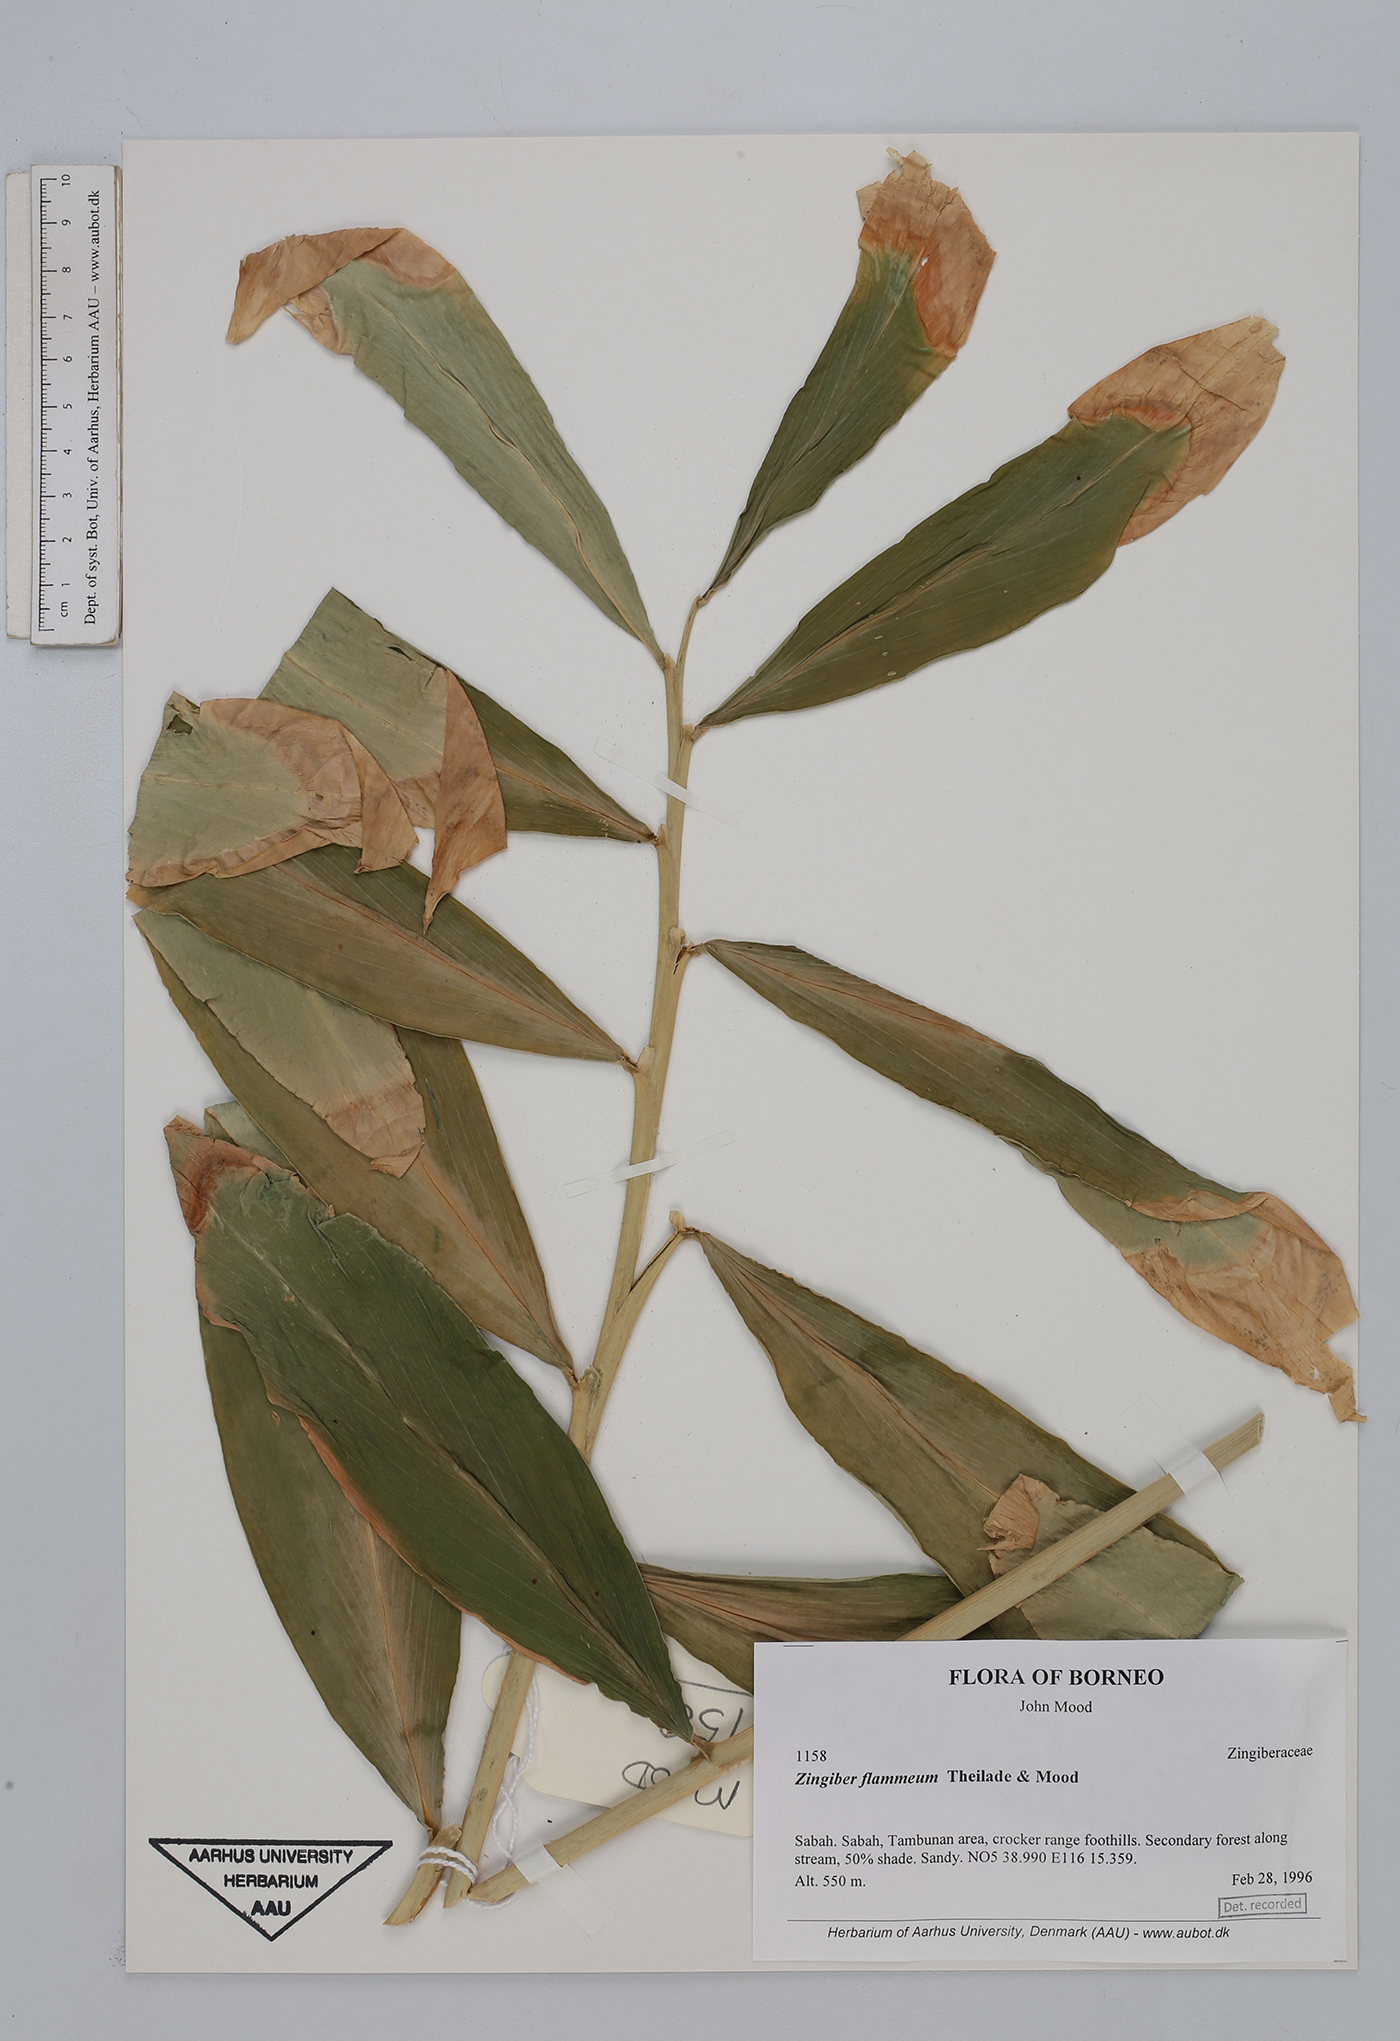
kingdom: Plantae
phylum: Tracheophyta
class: Liliopsida
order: Zingiberales
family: Zingiberaceae
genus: Zingiber
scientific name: Zingiber flammeum
